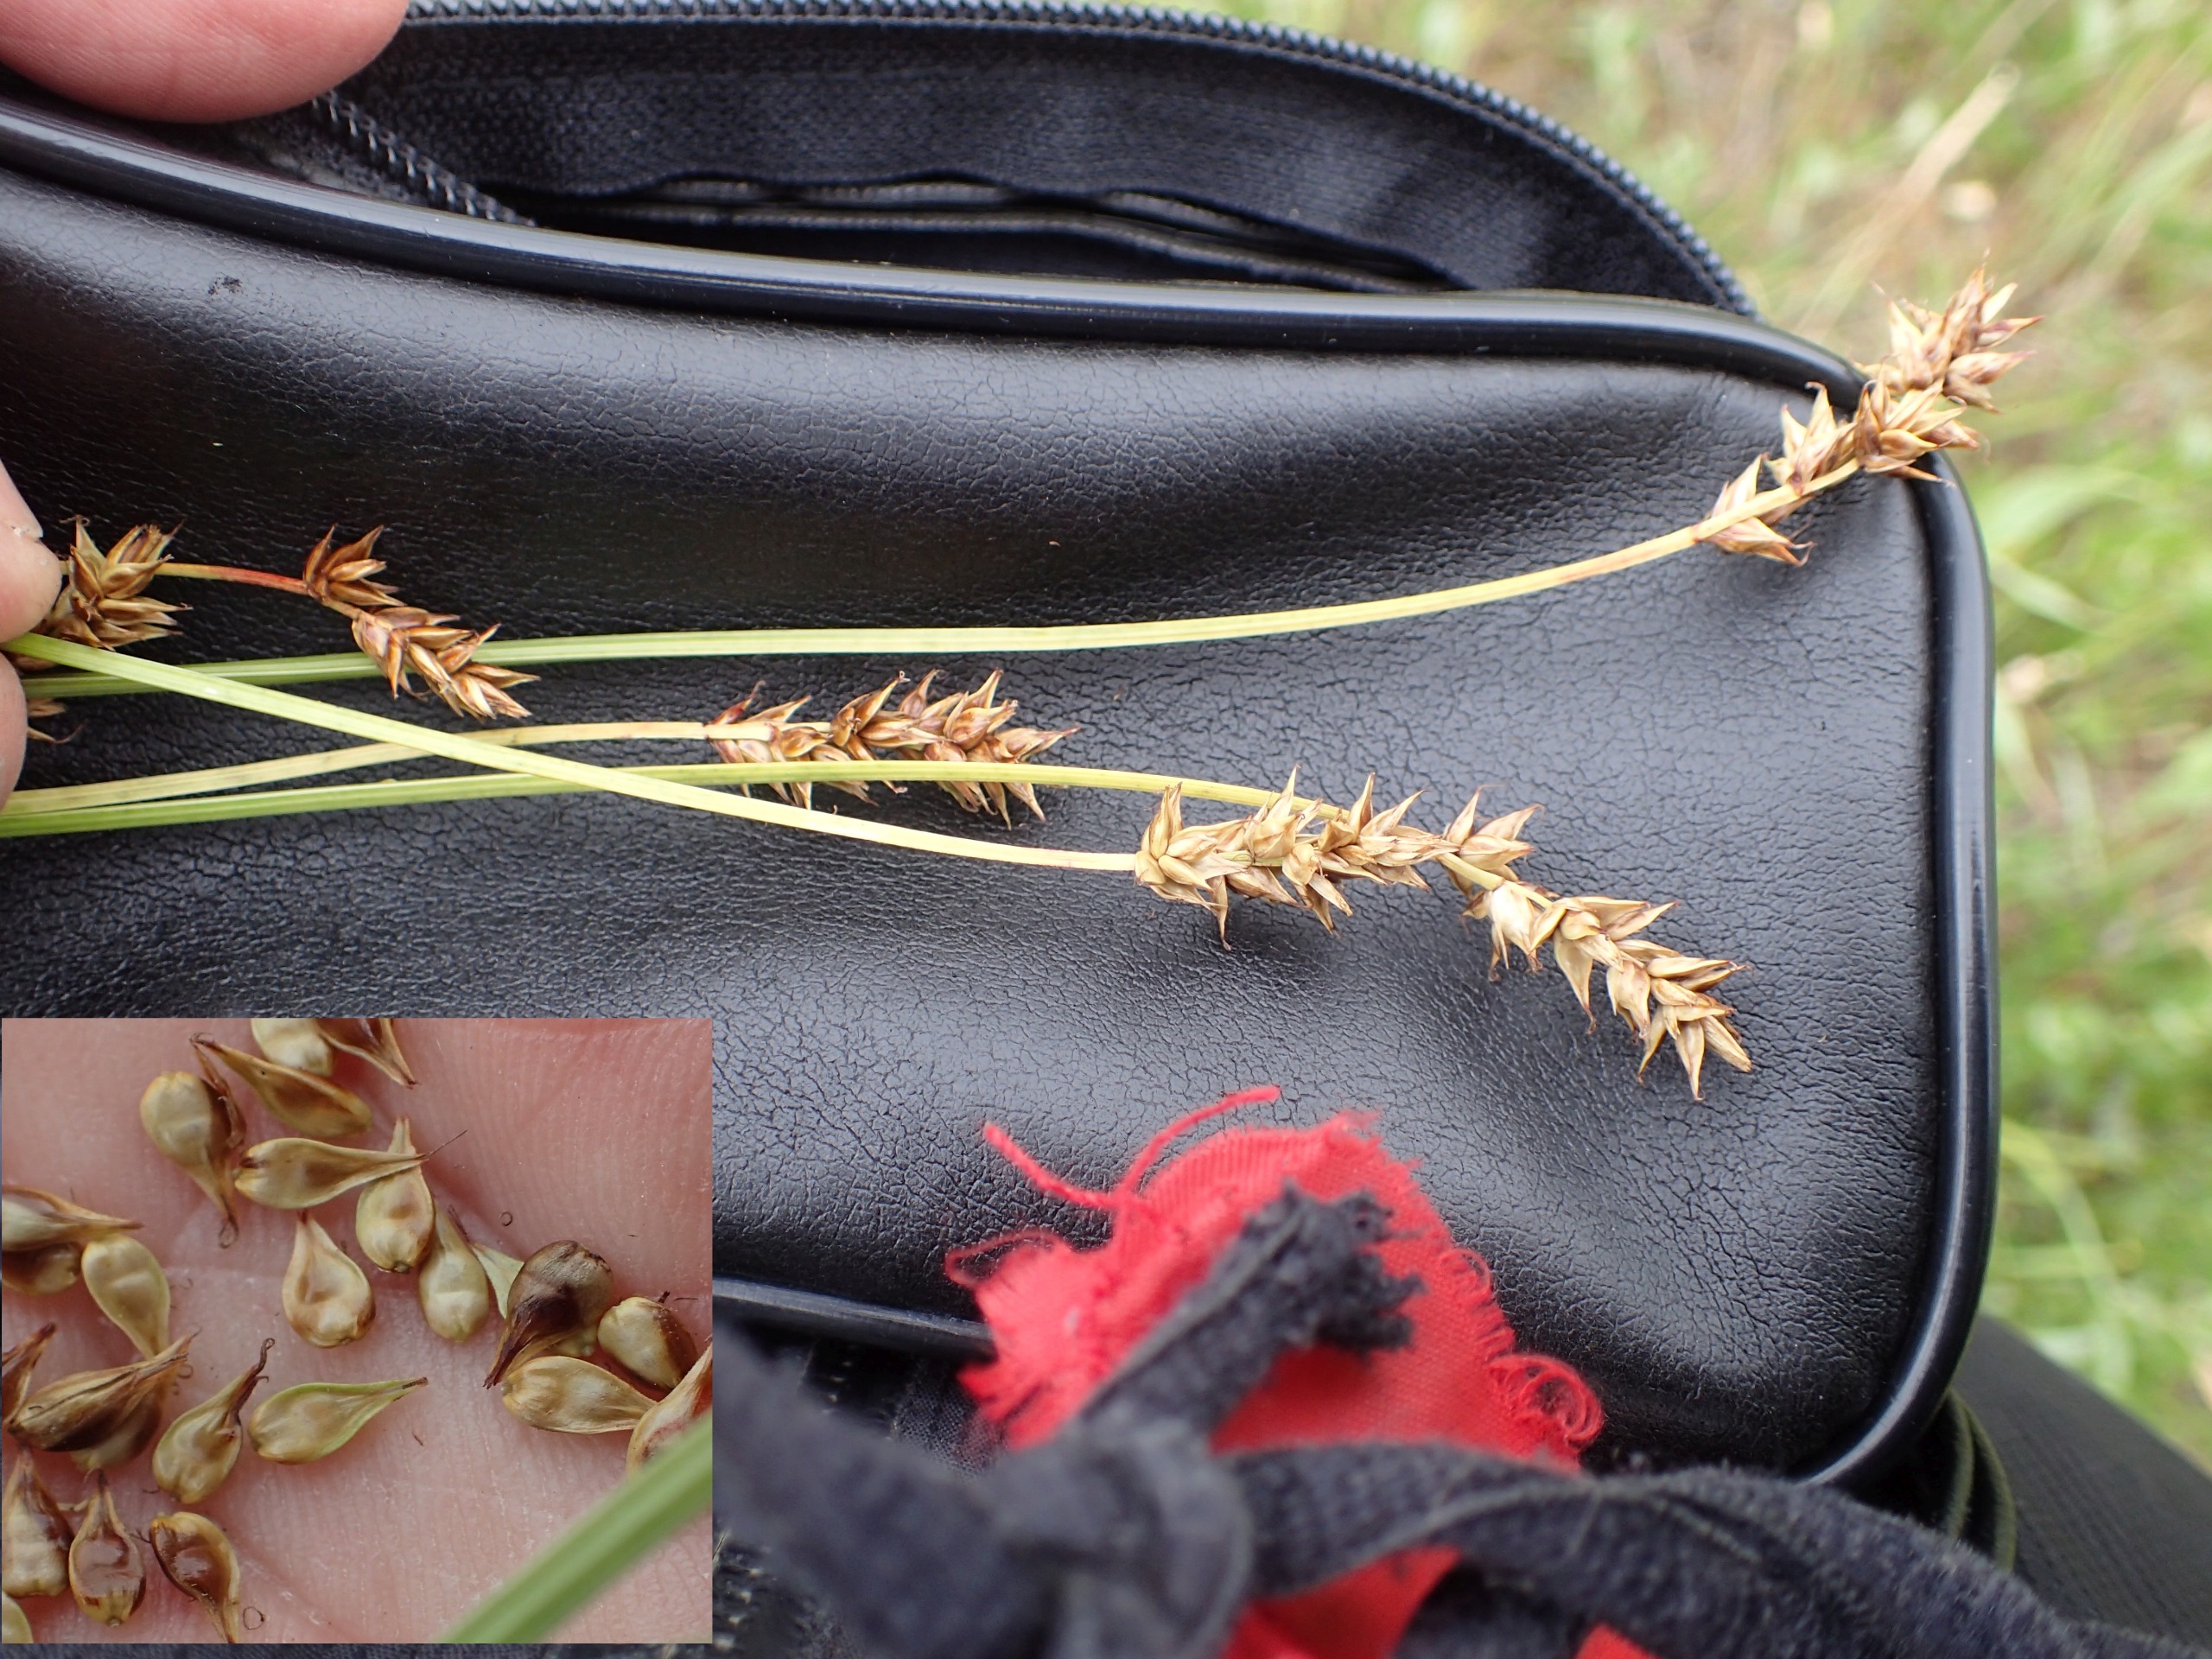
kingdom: Plantae
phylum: Tracheophyta
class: Liliopsida
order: Poales
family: Cyperaceae
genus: Carex
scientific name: Carex spicata
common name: Spidskapslet star
